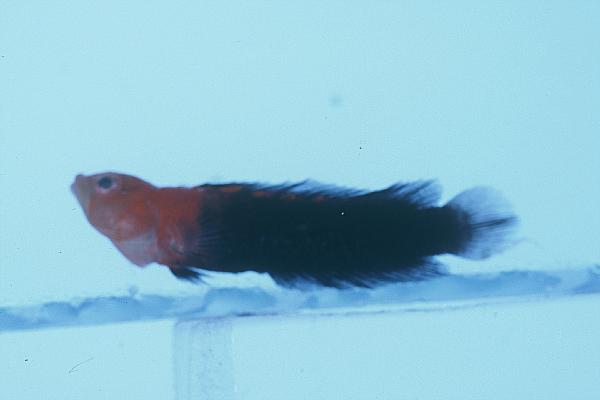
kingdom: Animalia
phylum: Chordata
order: Perciformes
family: Pseudochromidae
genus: Anisochromis
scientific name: Anisochromis
